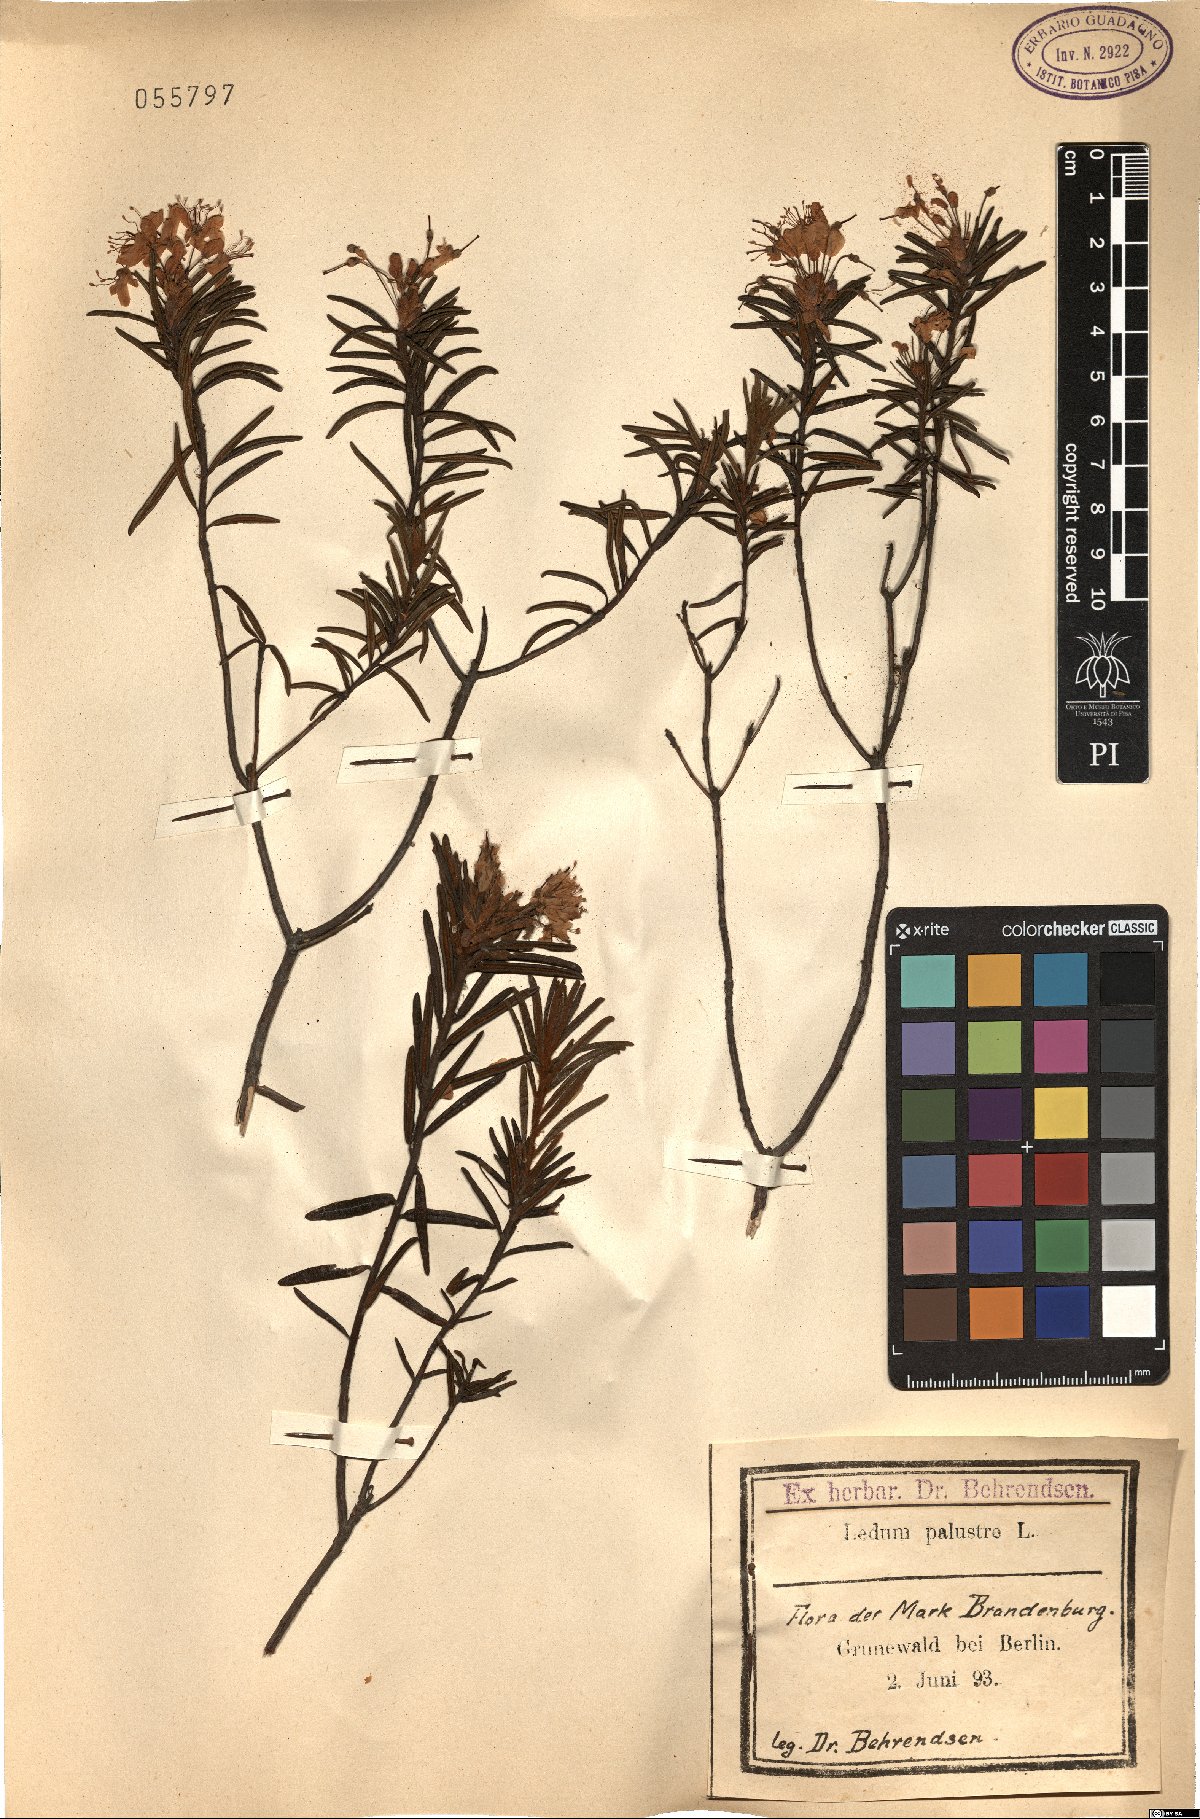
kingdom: Plantae
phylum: Tracheophyta
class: Magnoliopsida
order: Ericales
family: Ericaceae
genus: Rhododendron
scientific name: Rhododendron tomentosum
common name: Marsh labrador tea
